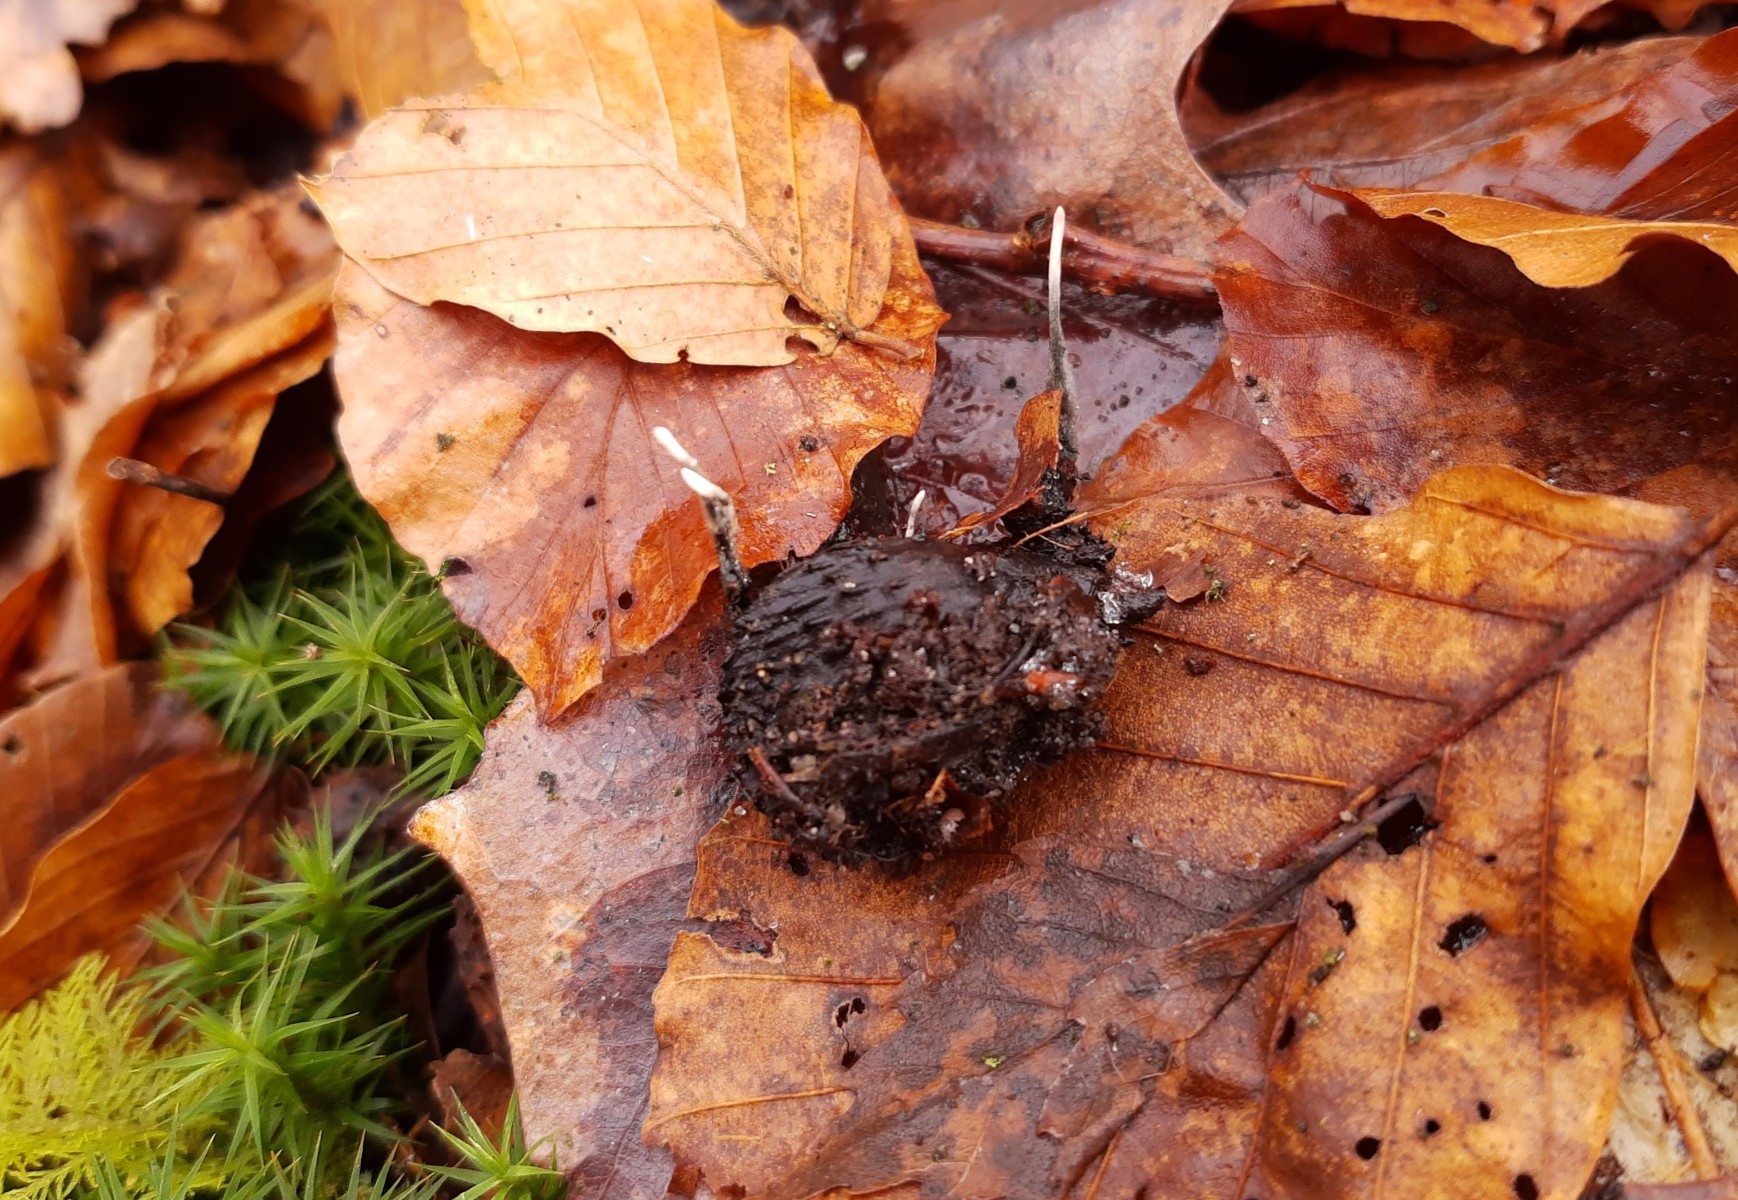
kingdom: Fungi
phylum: Ascomycota
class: Sordariomycetes
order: Xylariales
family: Xylariaceae
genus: Xylaria
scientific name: Xylaria carpophila
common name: bogskål-stødsvamp
